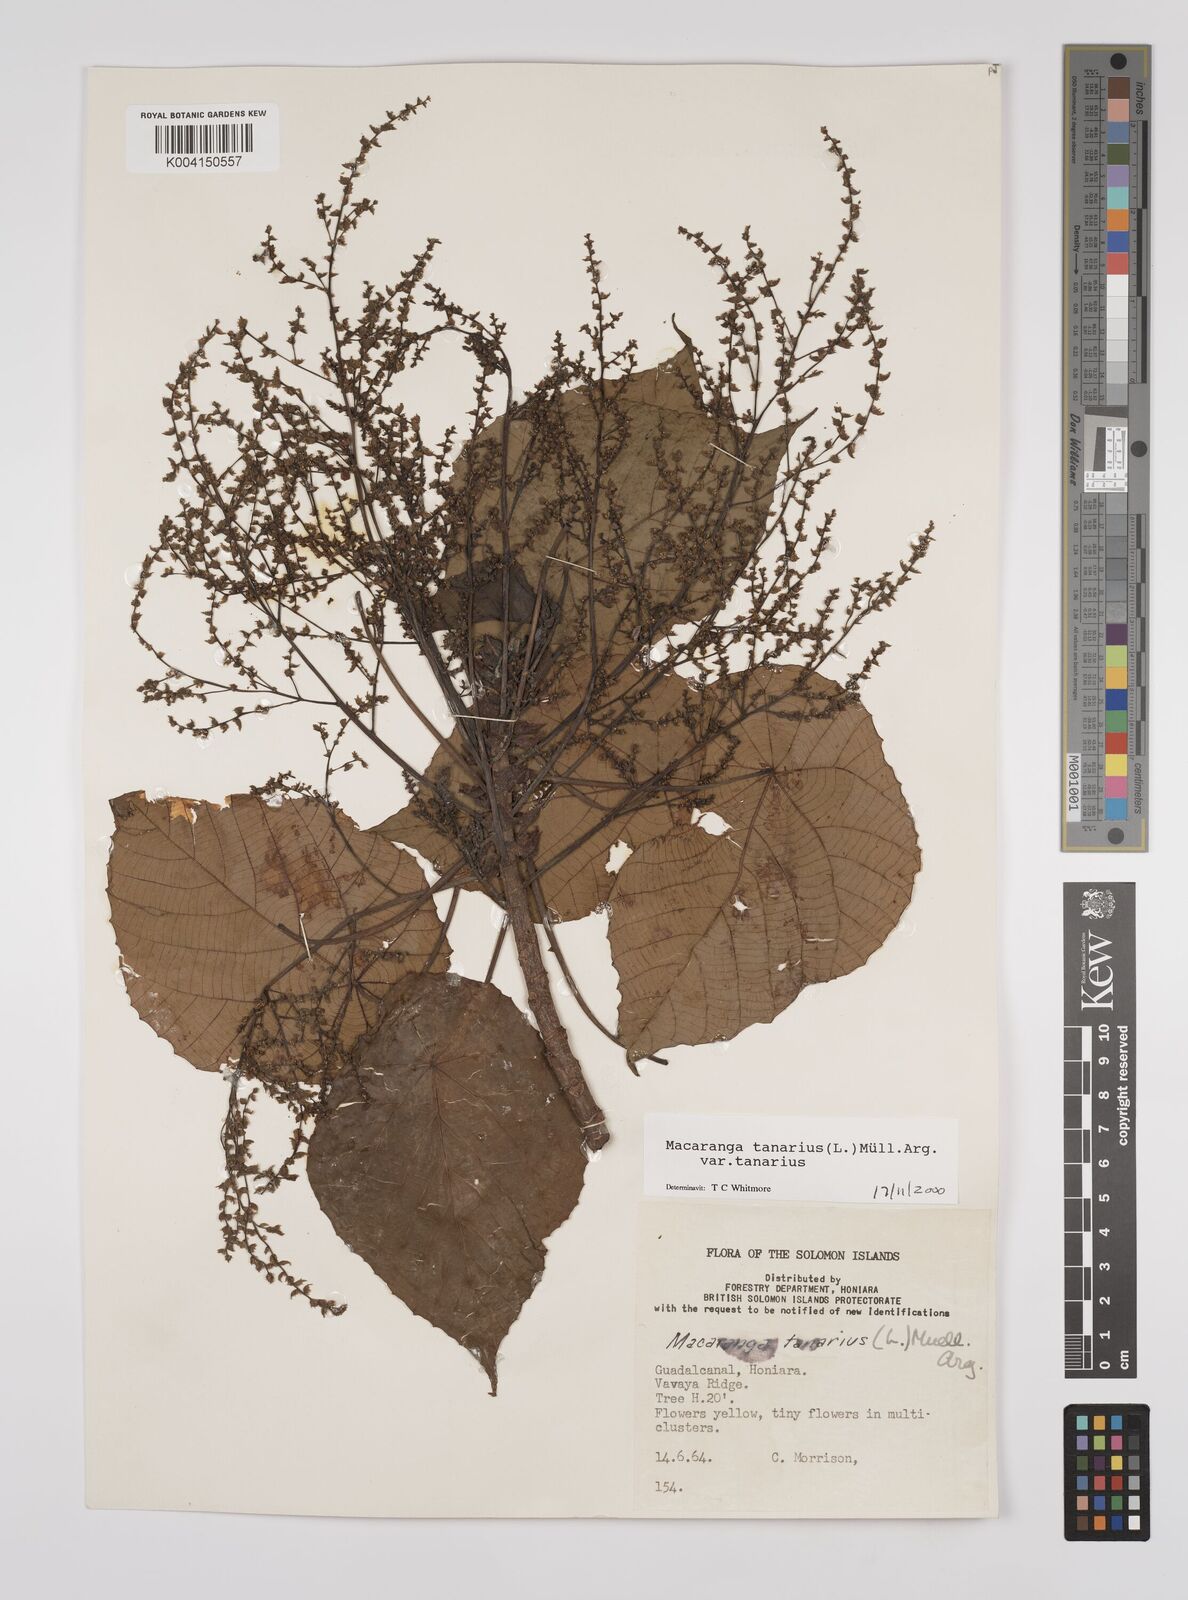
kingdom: Plantae
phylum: Tracheophyta
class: Magnoliopsida
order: Malpighiales
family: Euphorbiaceae
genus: Macaranga
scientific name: Macaranga tanarius
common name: Parasol leaf tree
